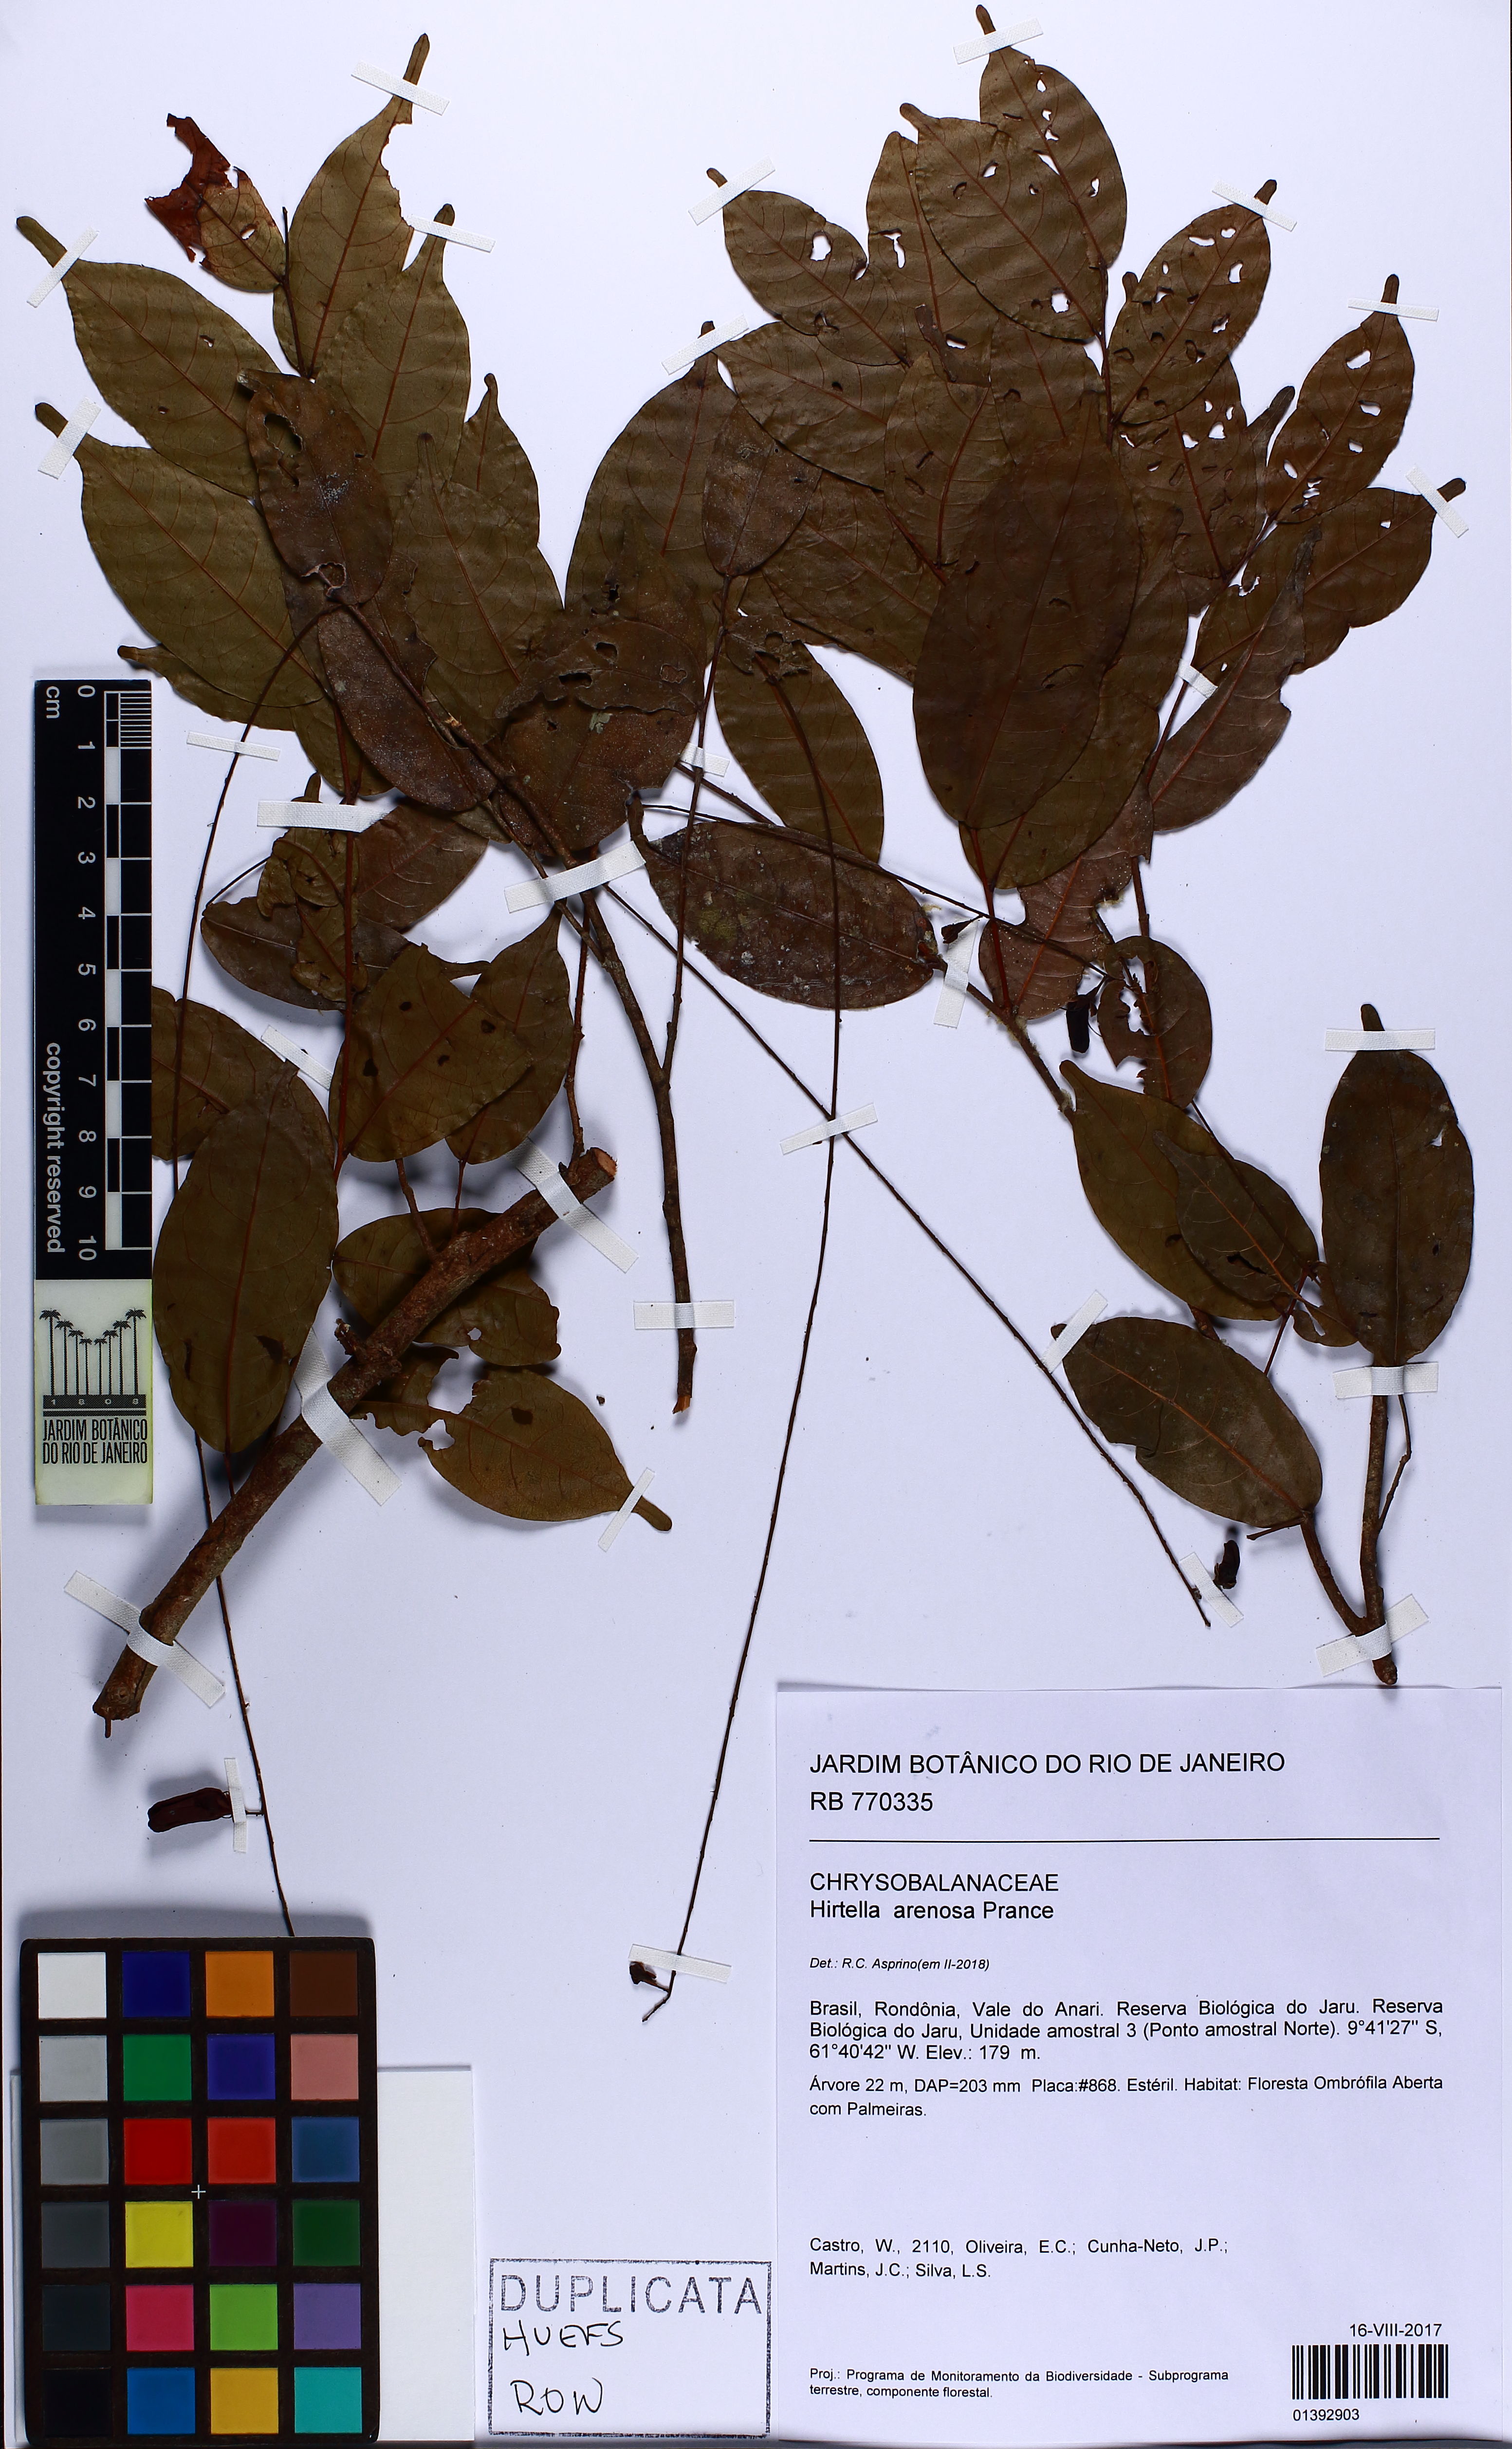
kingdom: Plantae
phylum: Tracheophyta
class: Magnoliopsida
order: Malpighiales
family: Chrysobalanaceae
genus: Hirtella
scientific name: Hirtella arenosa
